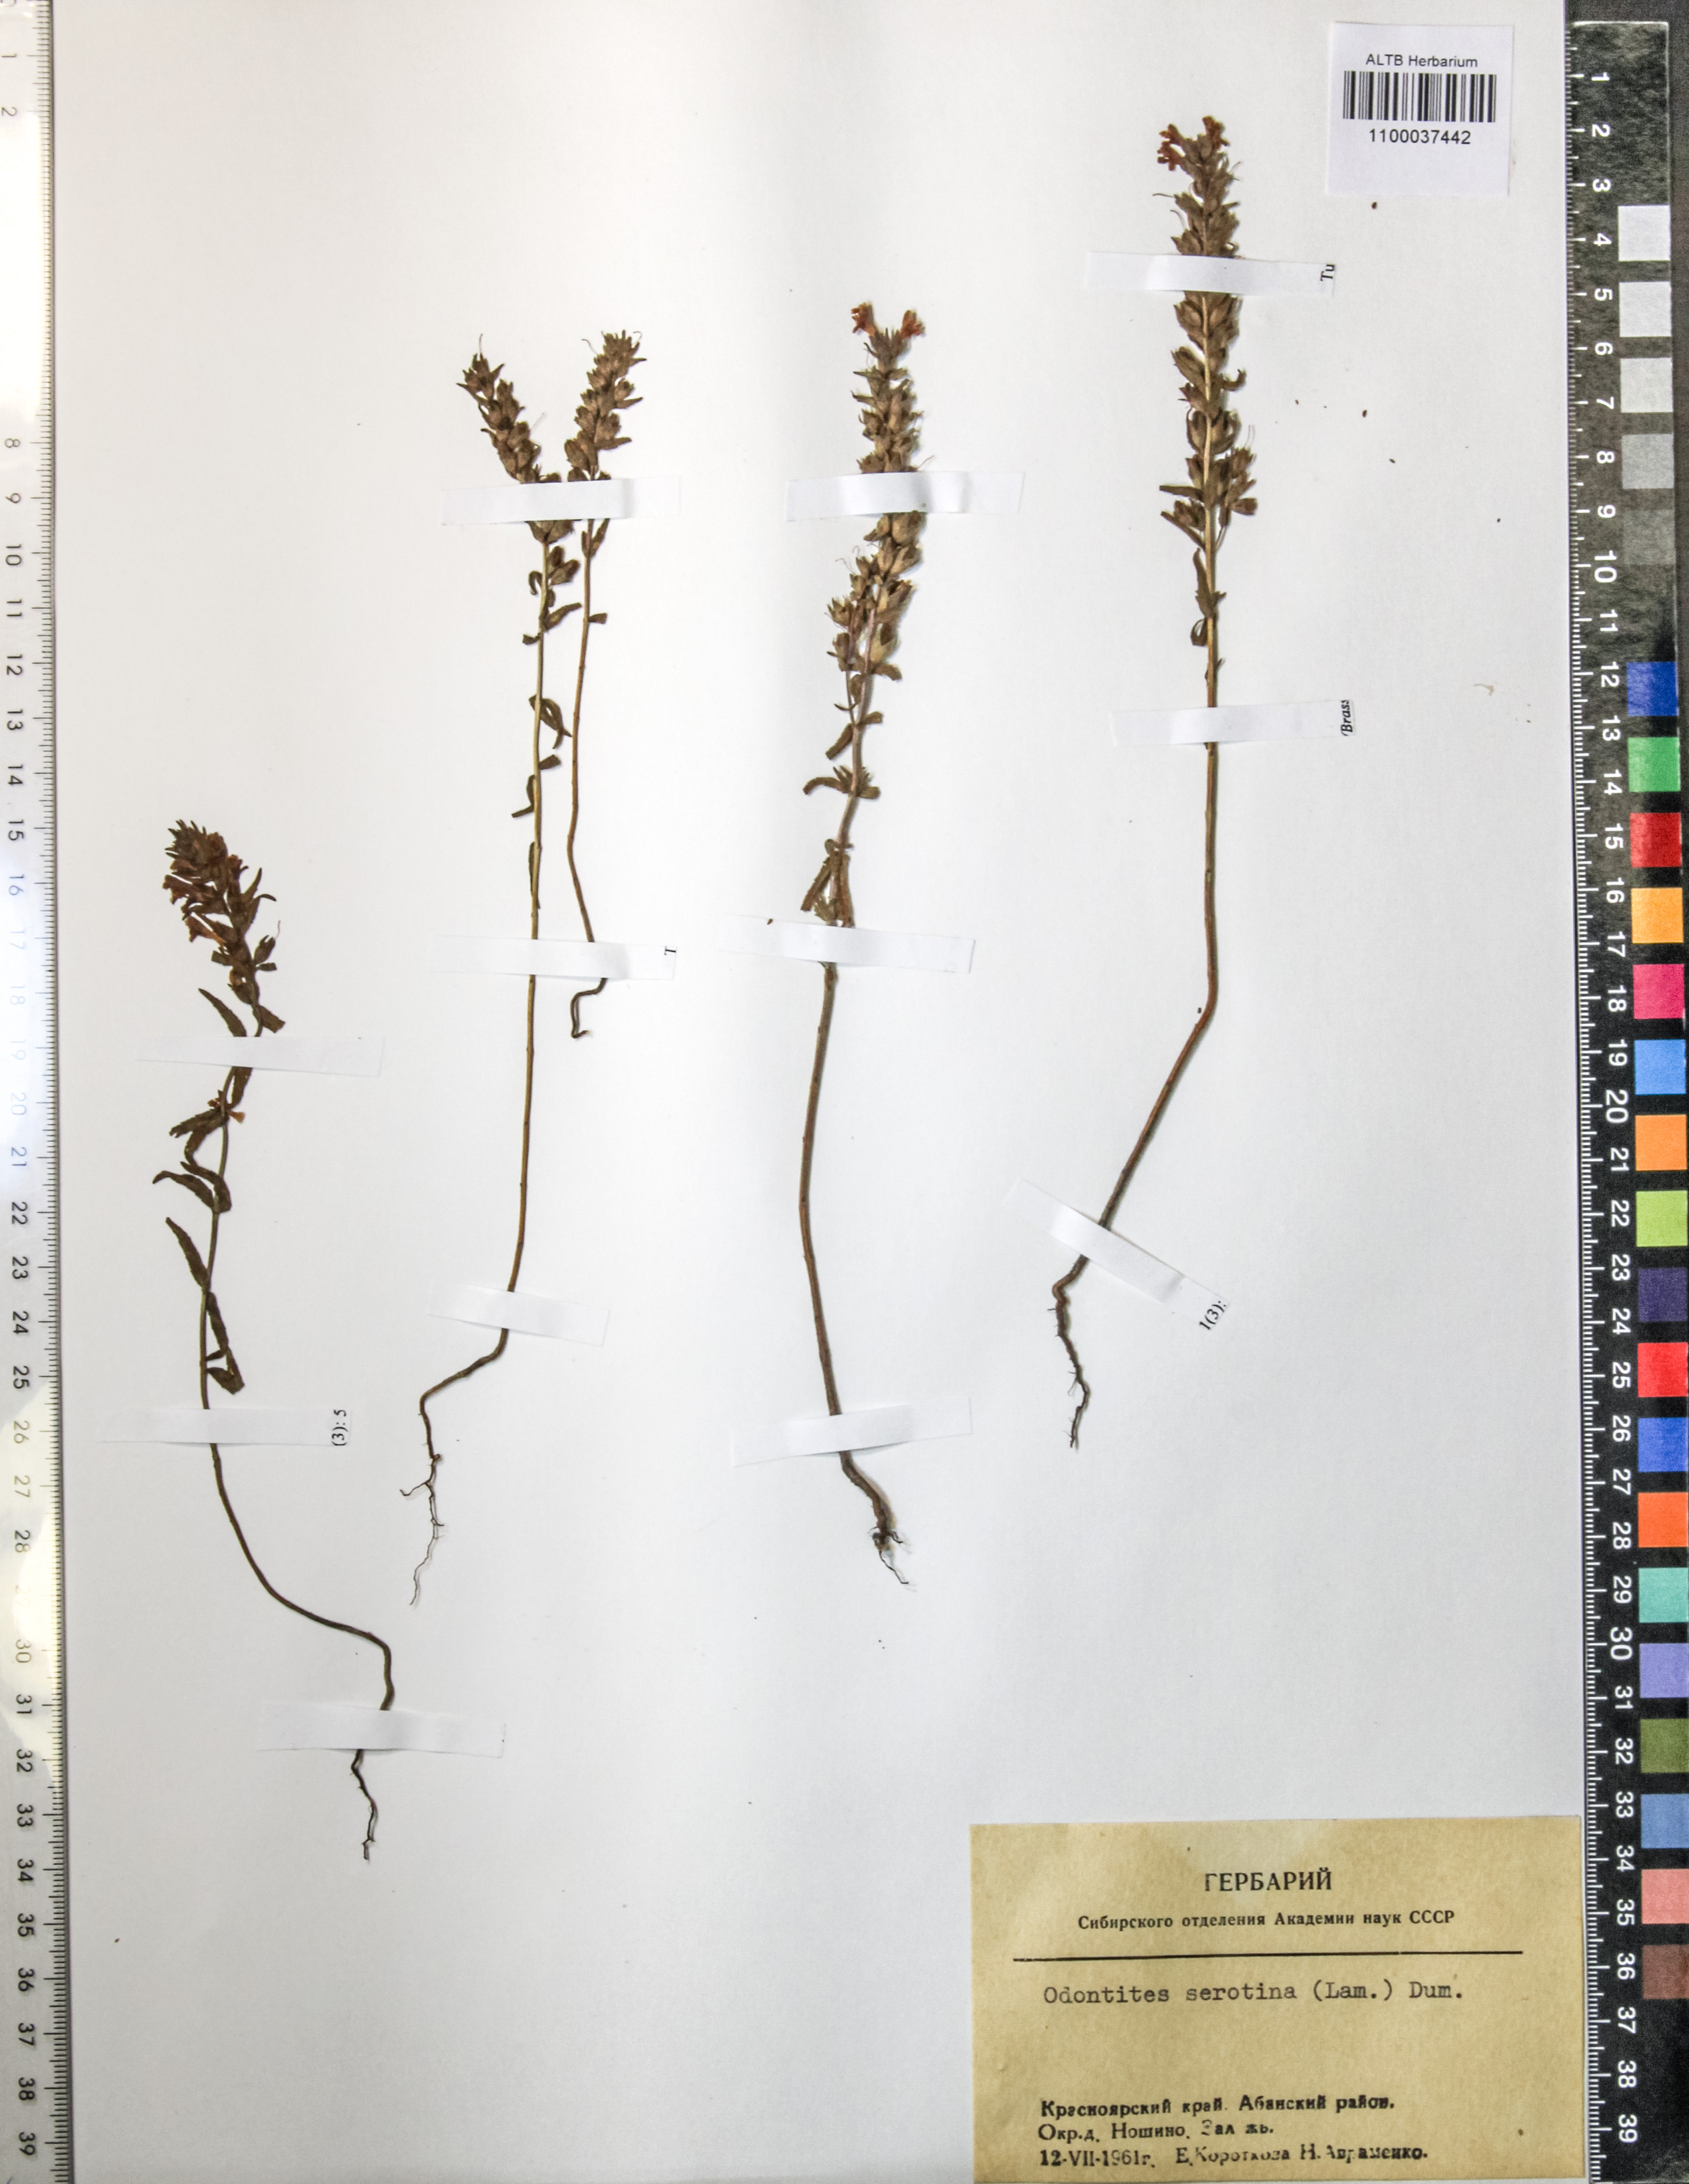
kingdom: Plantae
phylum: Tracheophyta
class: Magnoliopsida
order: Lamiales
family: Orobanchaceae
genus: Odontites
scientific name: Odontites vulgaris
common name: Broomrape
